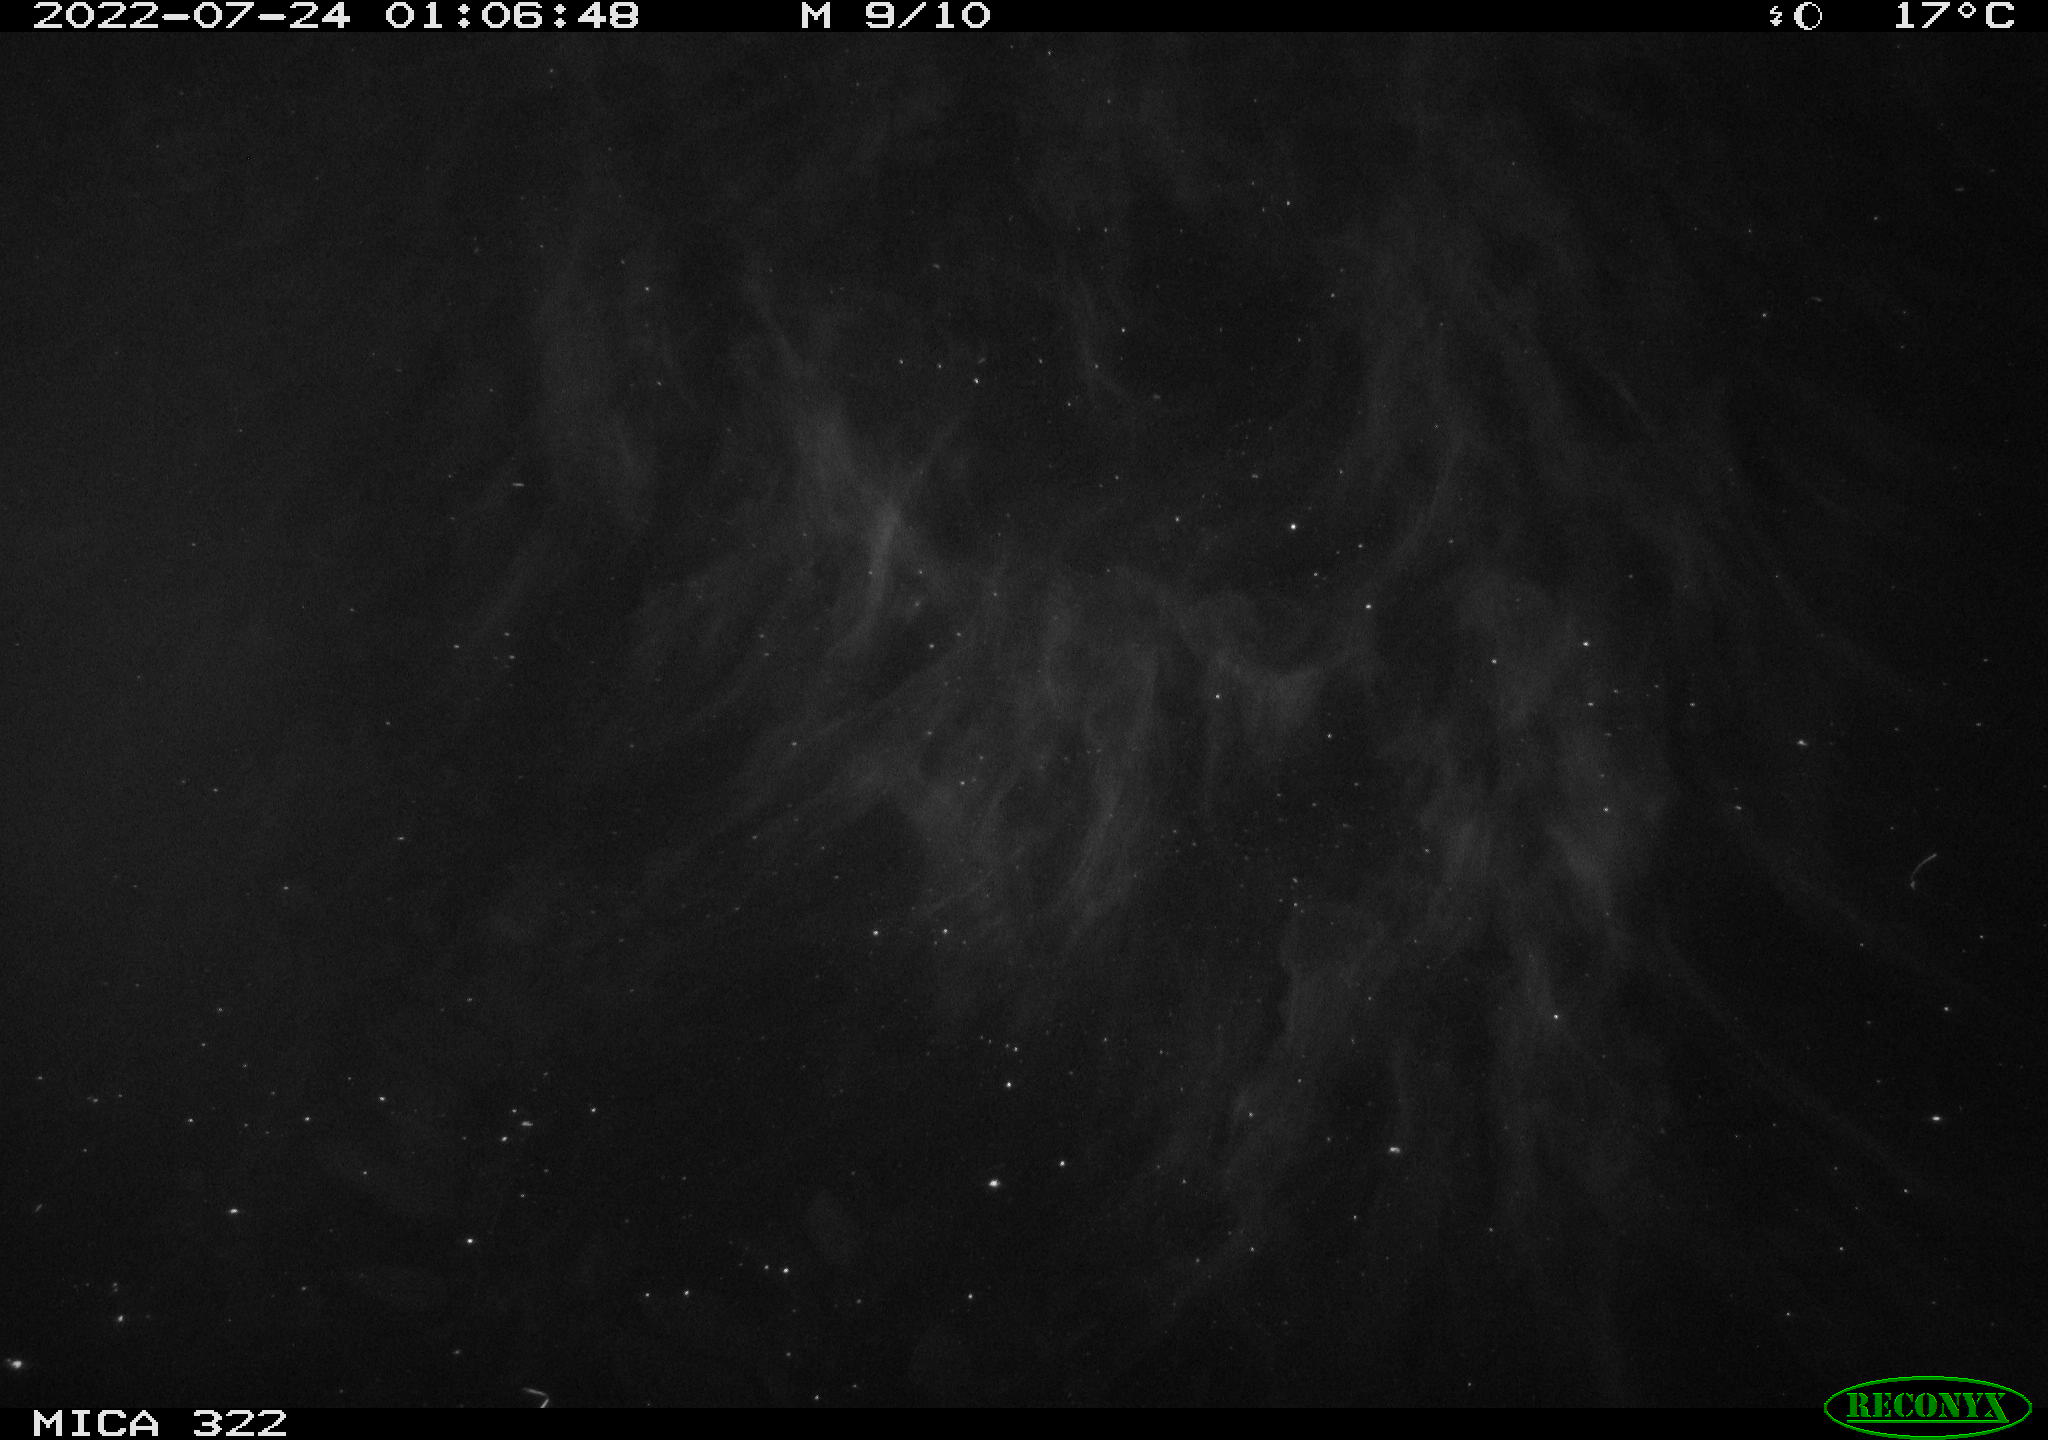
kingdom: Animalia
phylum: Chordata
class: Aves
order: Gruiformes
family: Rallidae
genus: Fulica
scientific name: Fulica atra
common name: Eurasian coot
